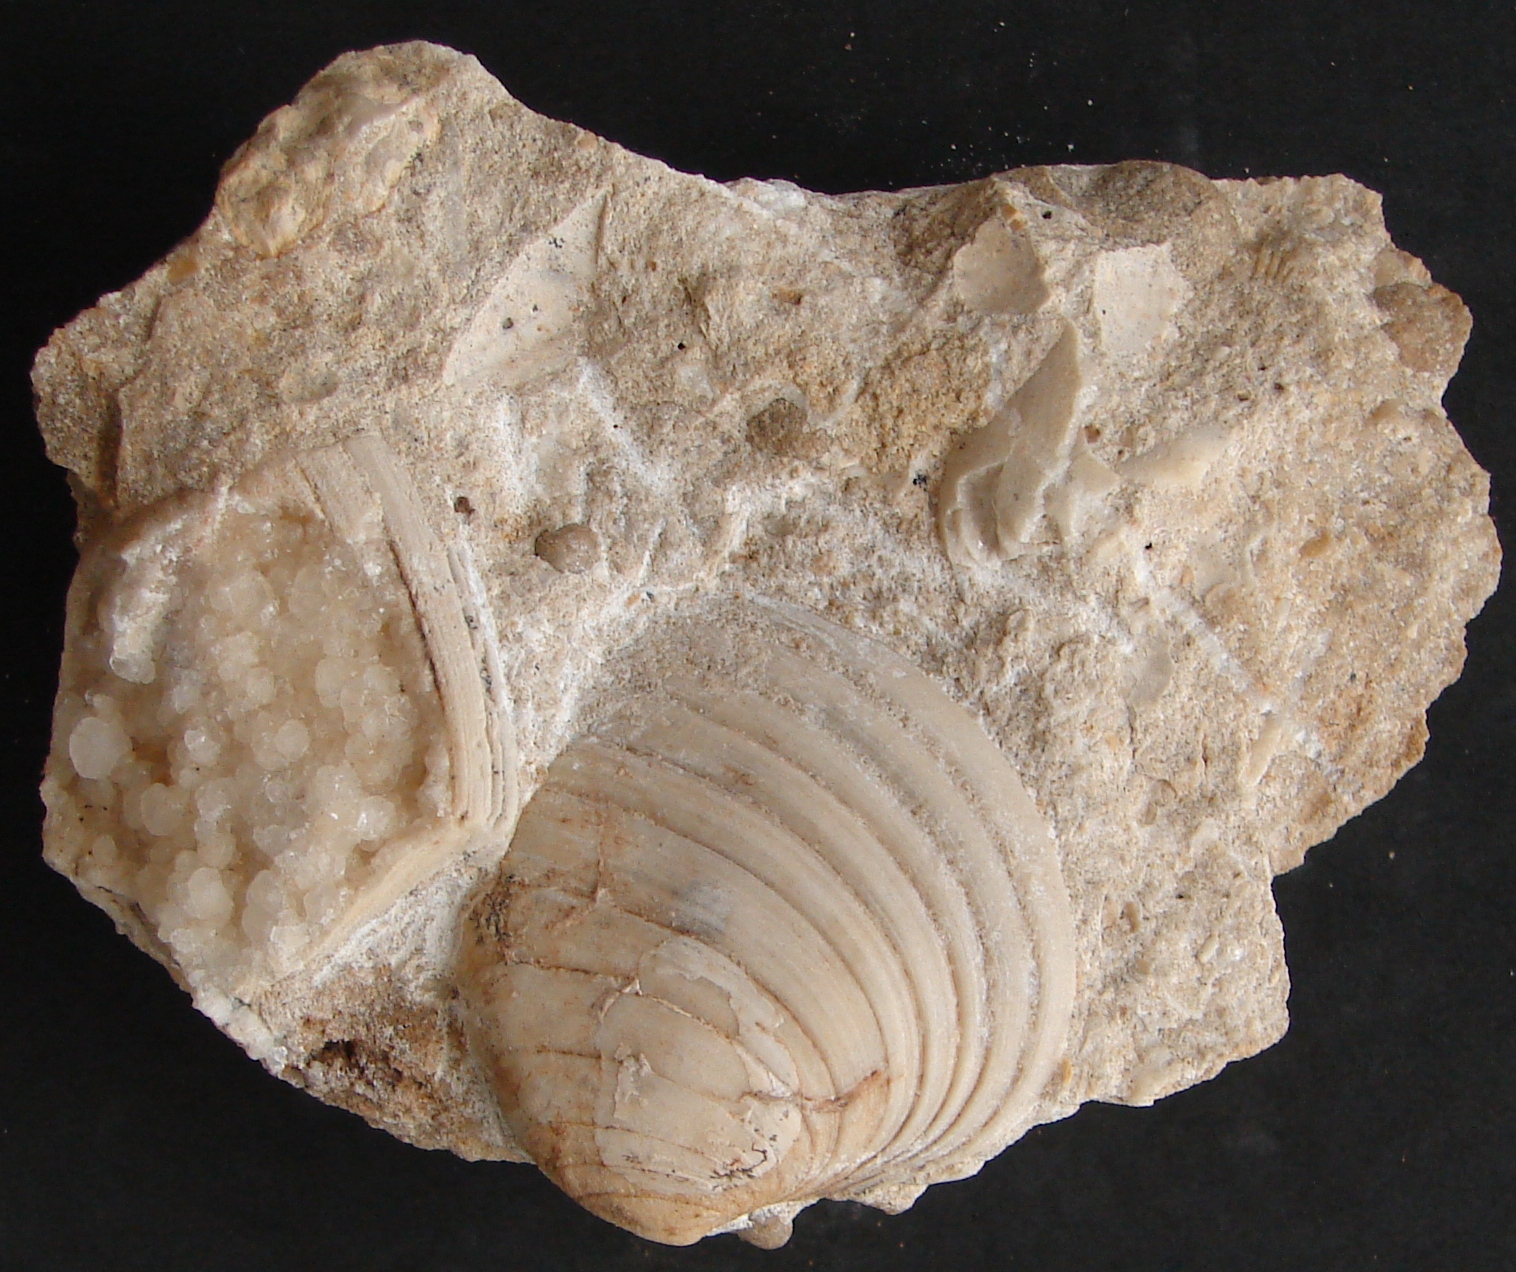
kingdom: Animalia
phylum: Mollusca
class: Bivalvia
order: Carditida
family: Cardiniidae
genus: Cardinia
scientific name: Cardinia
